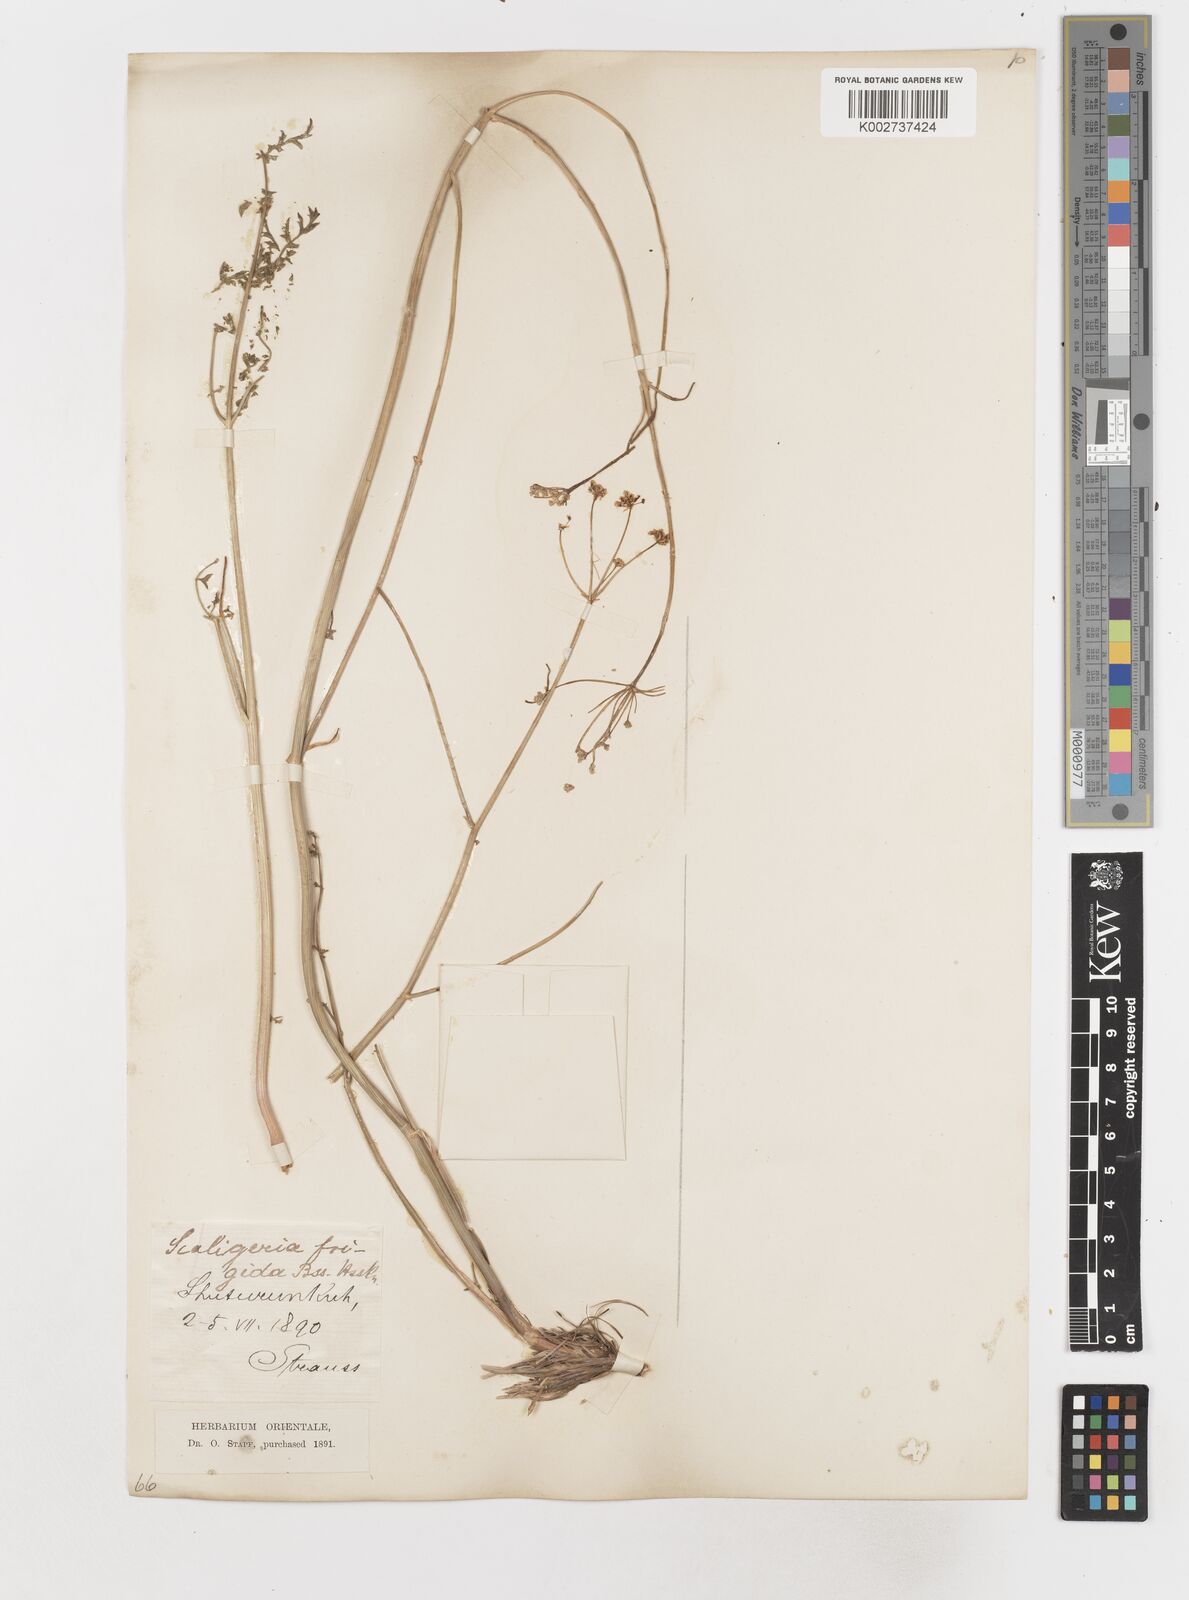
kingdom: Plantae
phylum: Tracheophyta
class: Magnoliopsida
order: Apiales
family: Apiaceae
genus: Scaligeria
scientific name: Scaligeria
